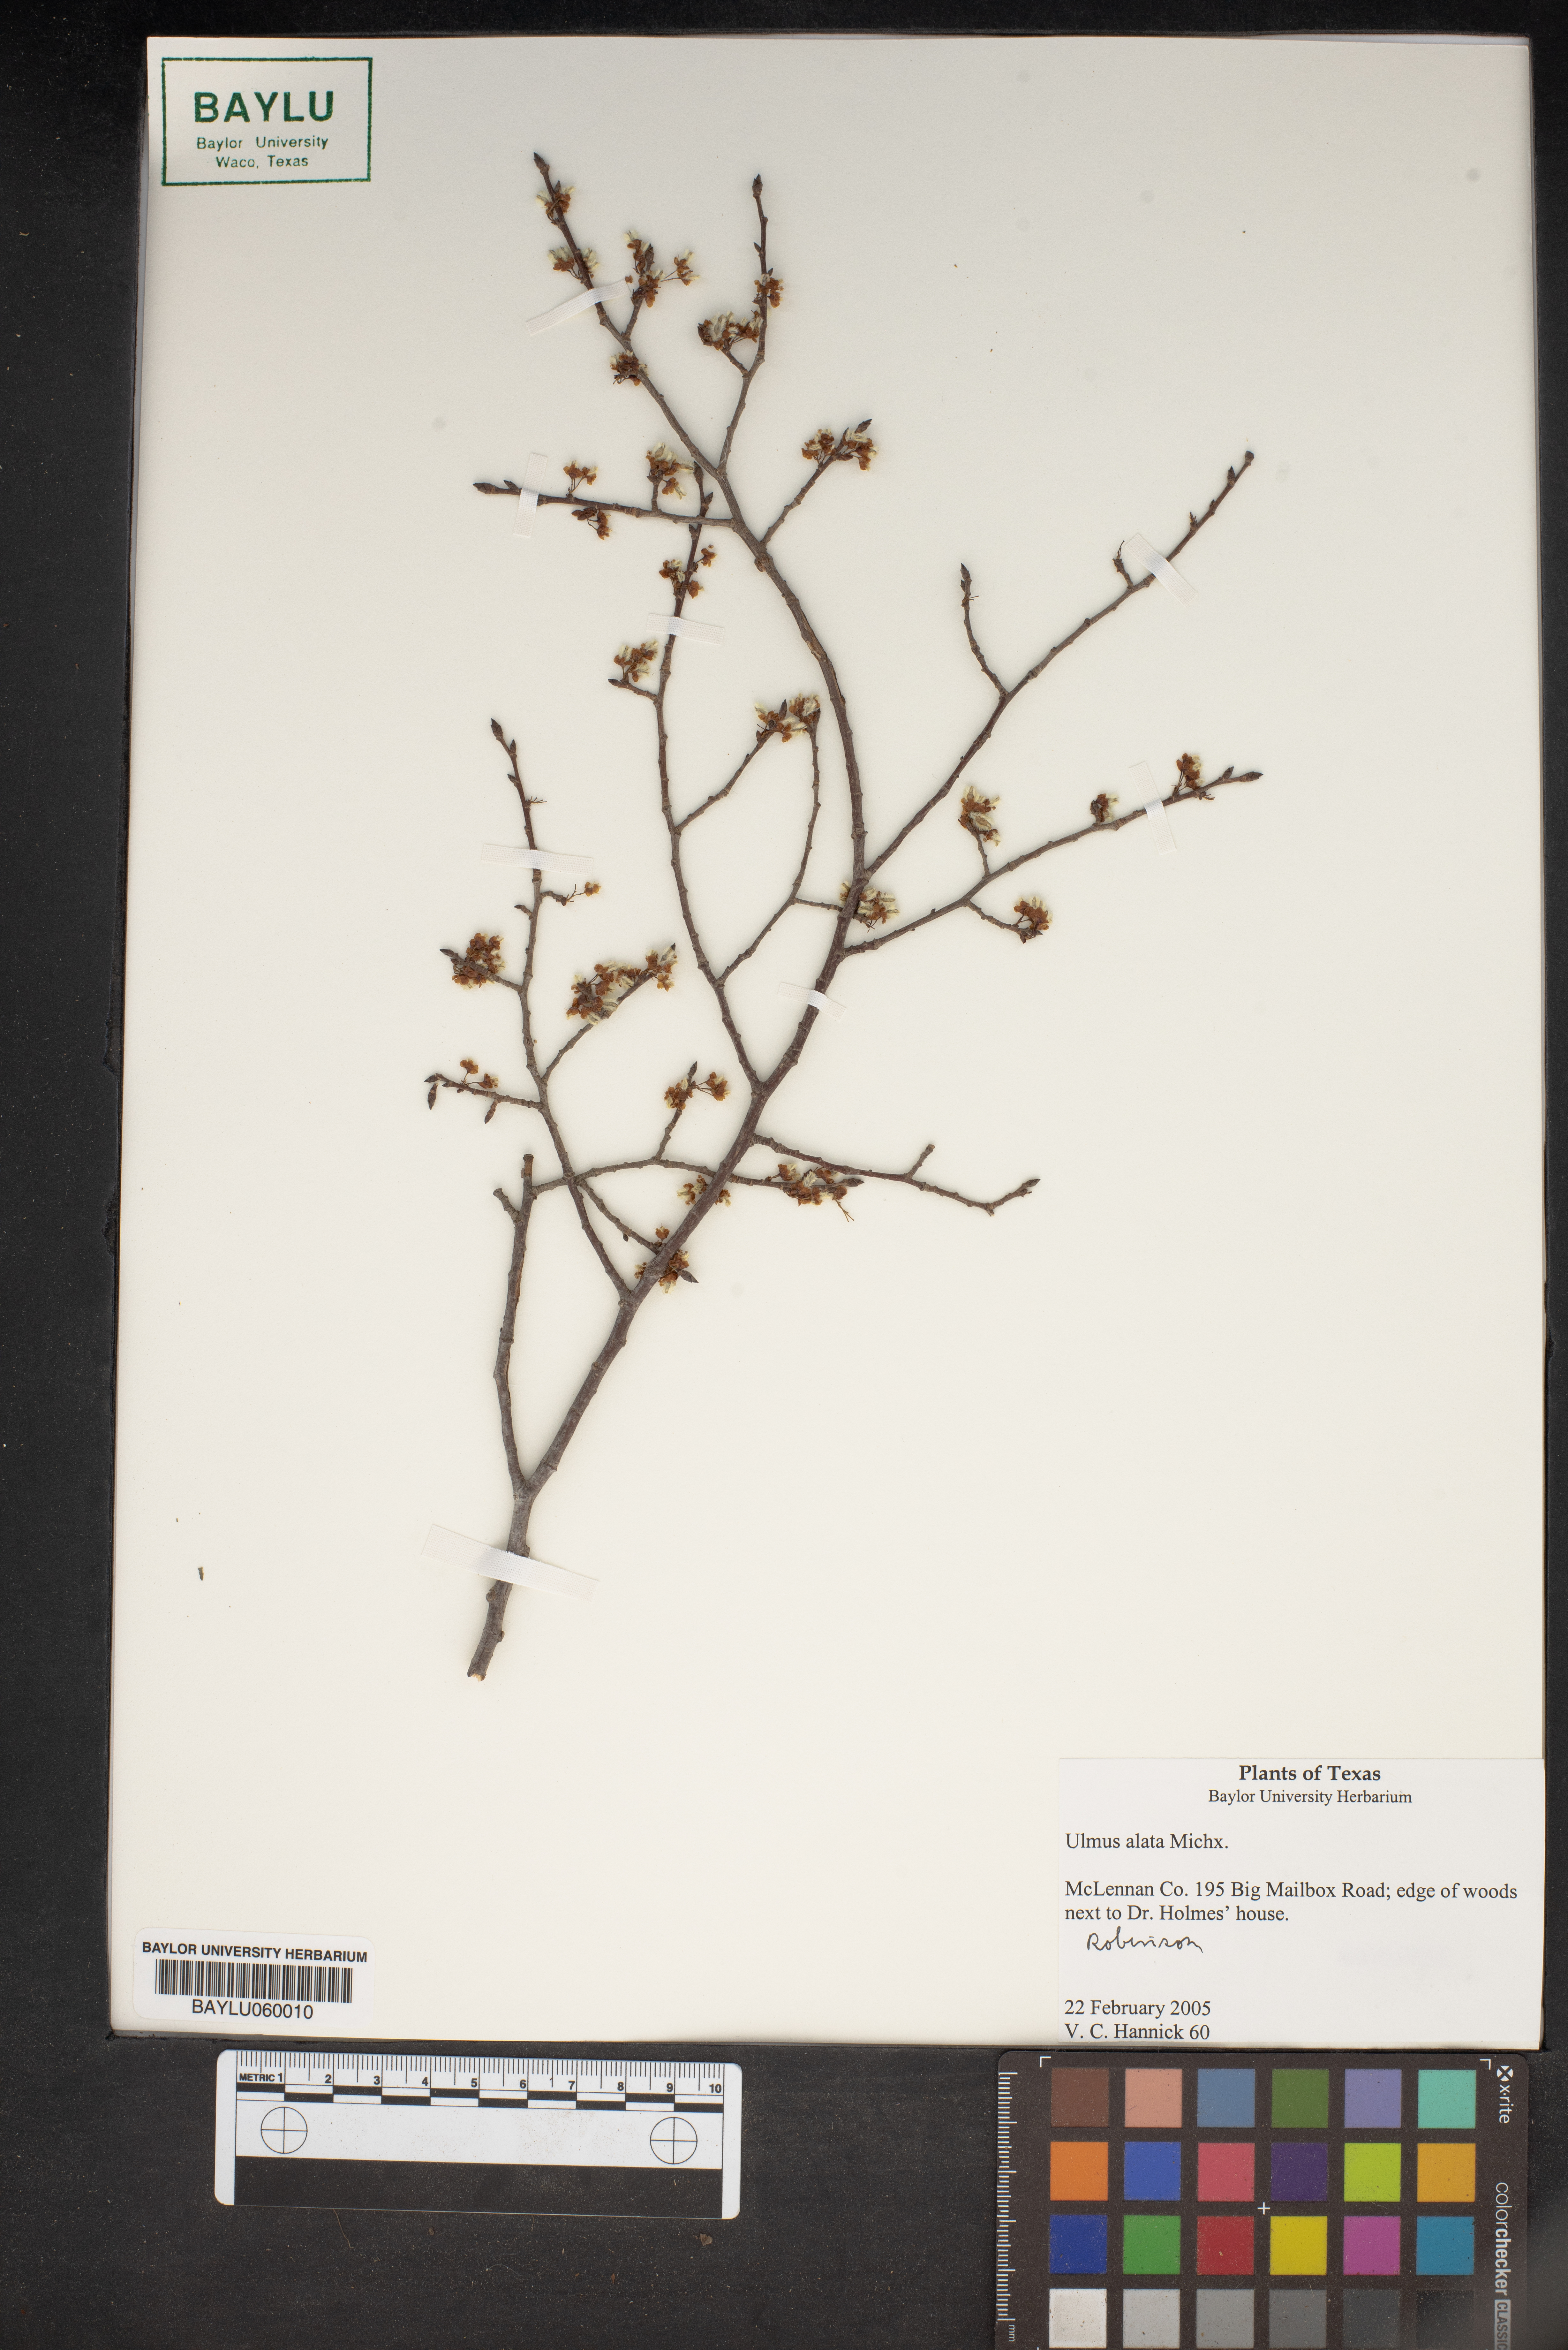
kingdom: Plantae
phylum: Tracheophyta
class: Magnoliopsida
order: Rosales
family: Ulmaceae
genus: Ulmus
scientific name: Ulmus alata
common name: Winged elm
